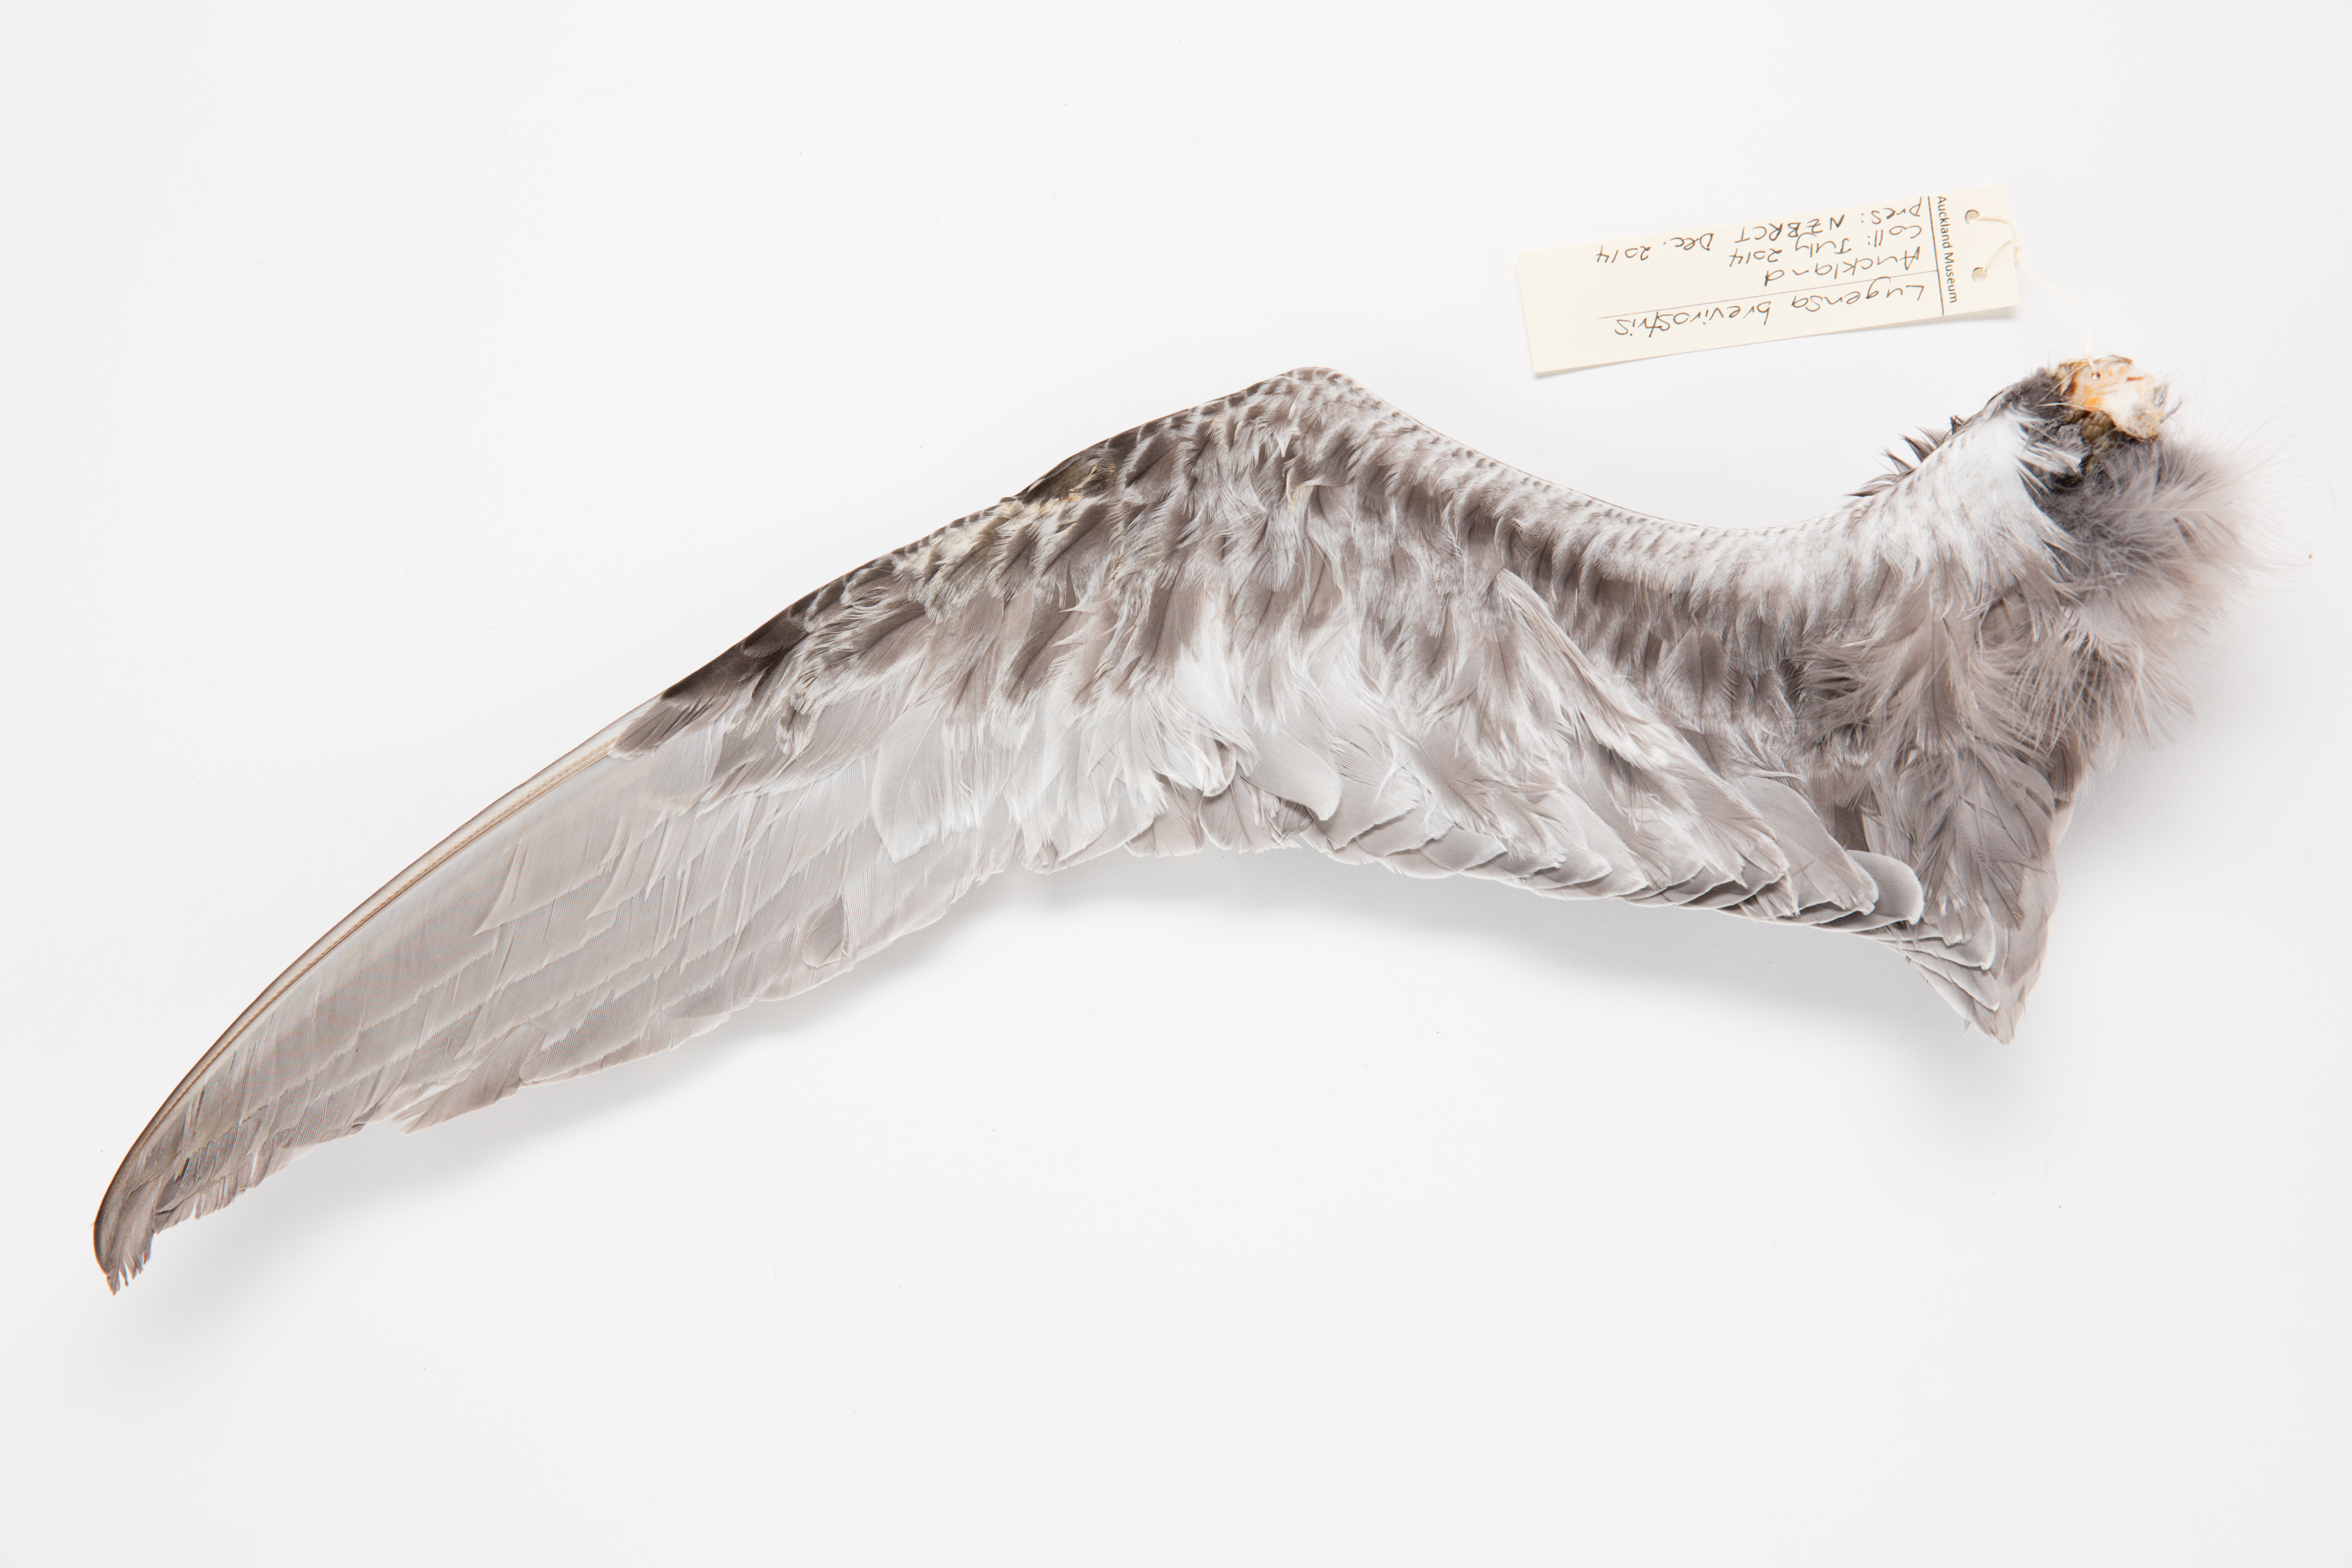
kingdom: Animalia
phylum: Chordata
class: Aves
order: Procellariiformes
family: Procellariidae
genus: Aphrodroma
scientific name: Aphrodroma brevirostris
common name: Kerguelen petrel
